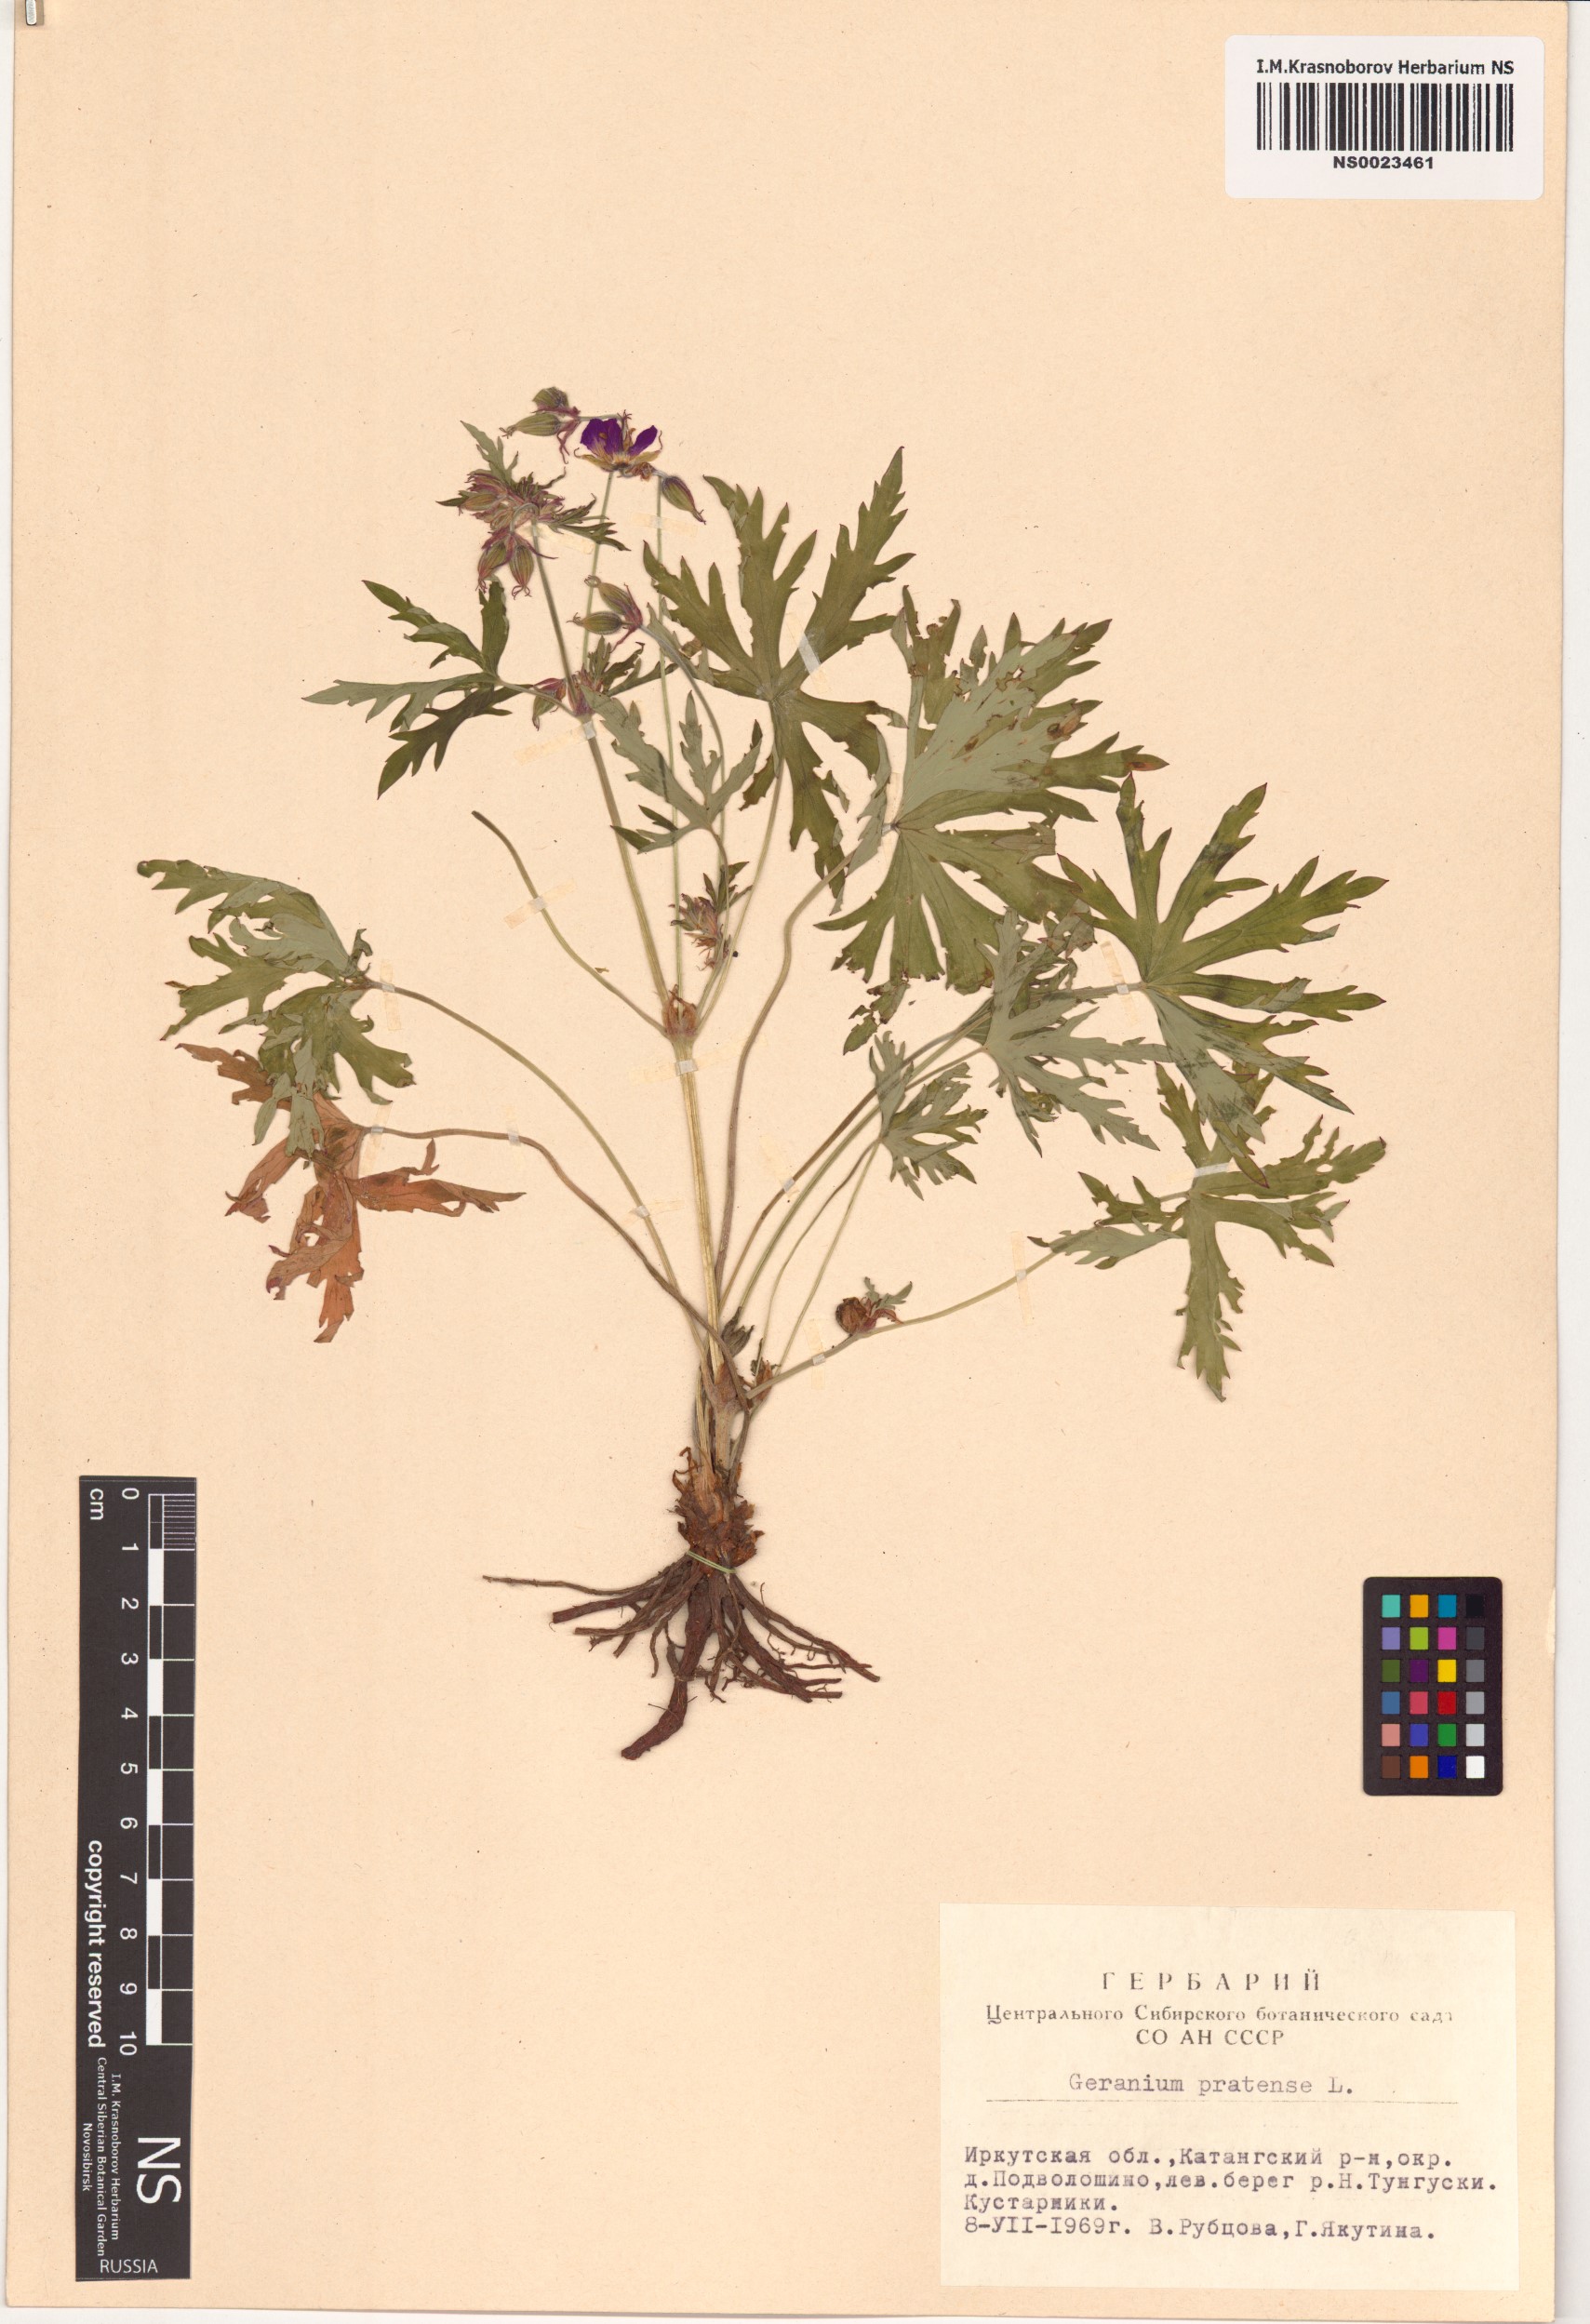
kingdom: Plantae
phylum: Tracheophyta
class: Magnoliopsida
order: Geraniales
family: Geraniaceae
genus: Geranium
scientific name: Geranium pratense
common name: Meadow crane's-bill
